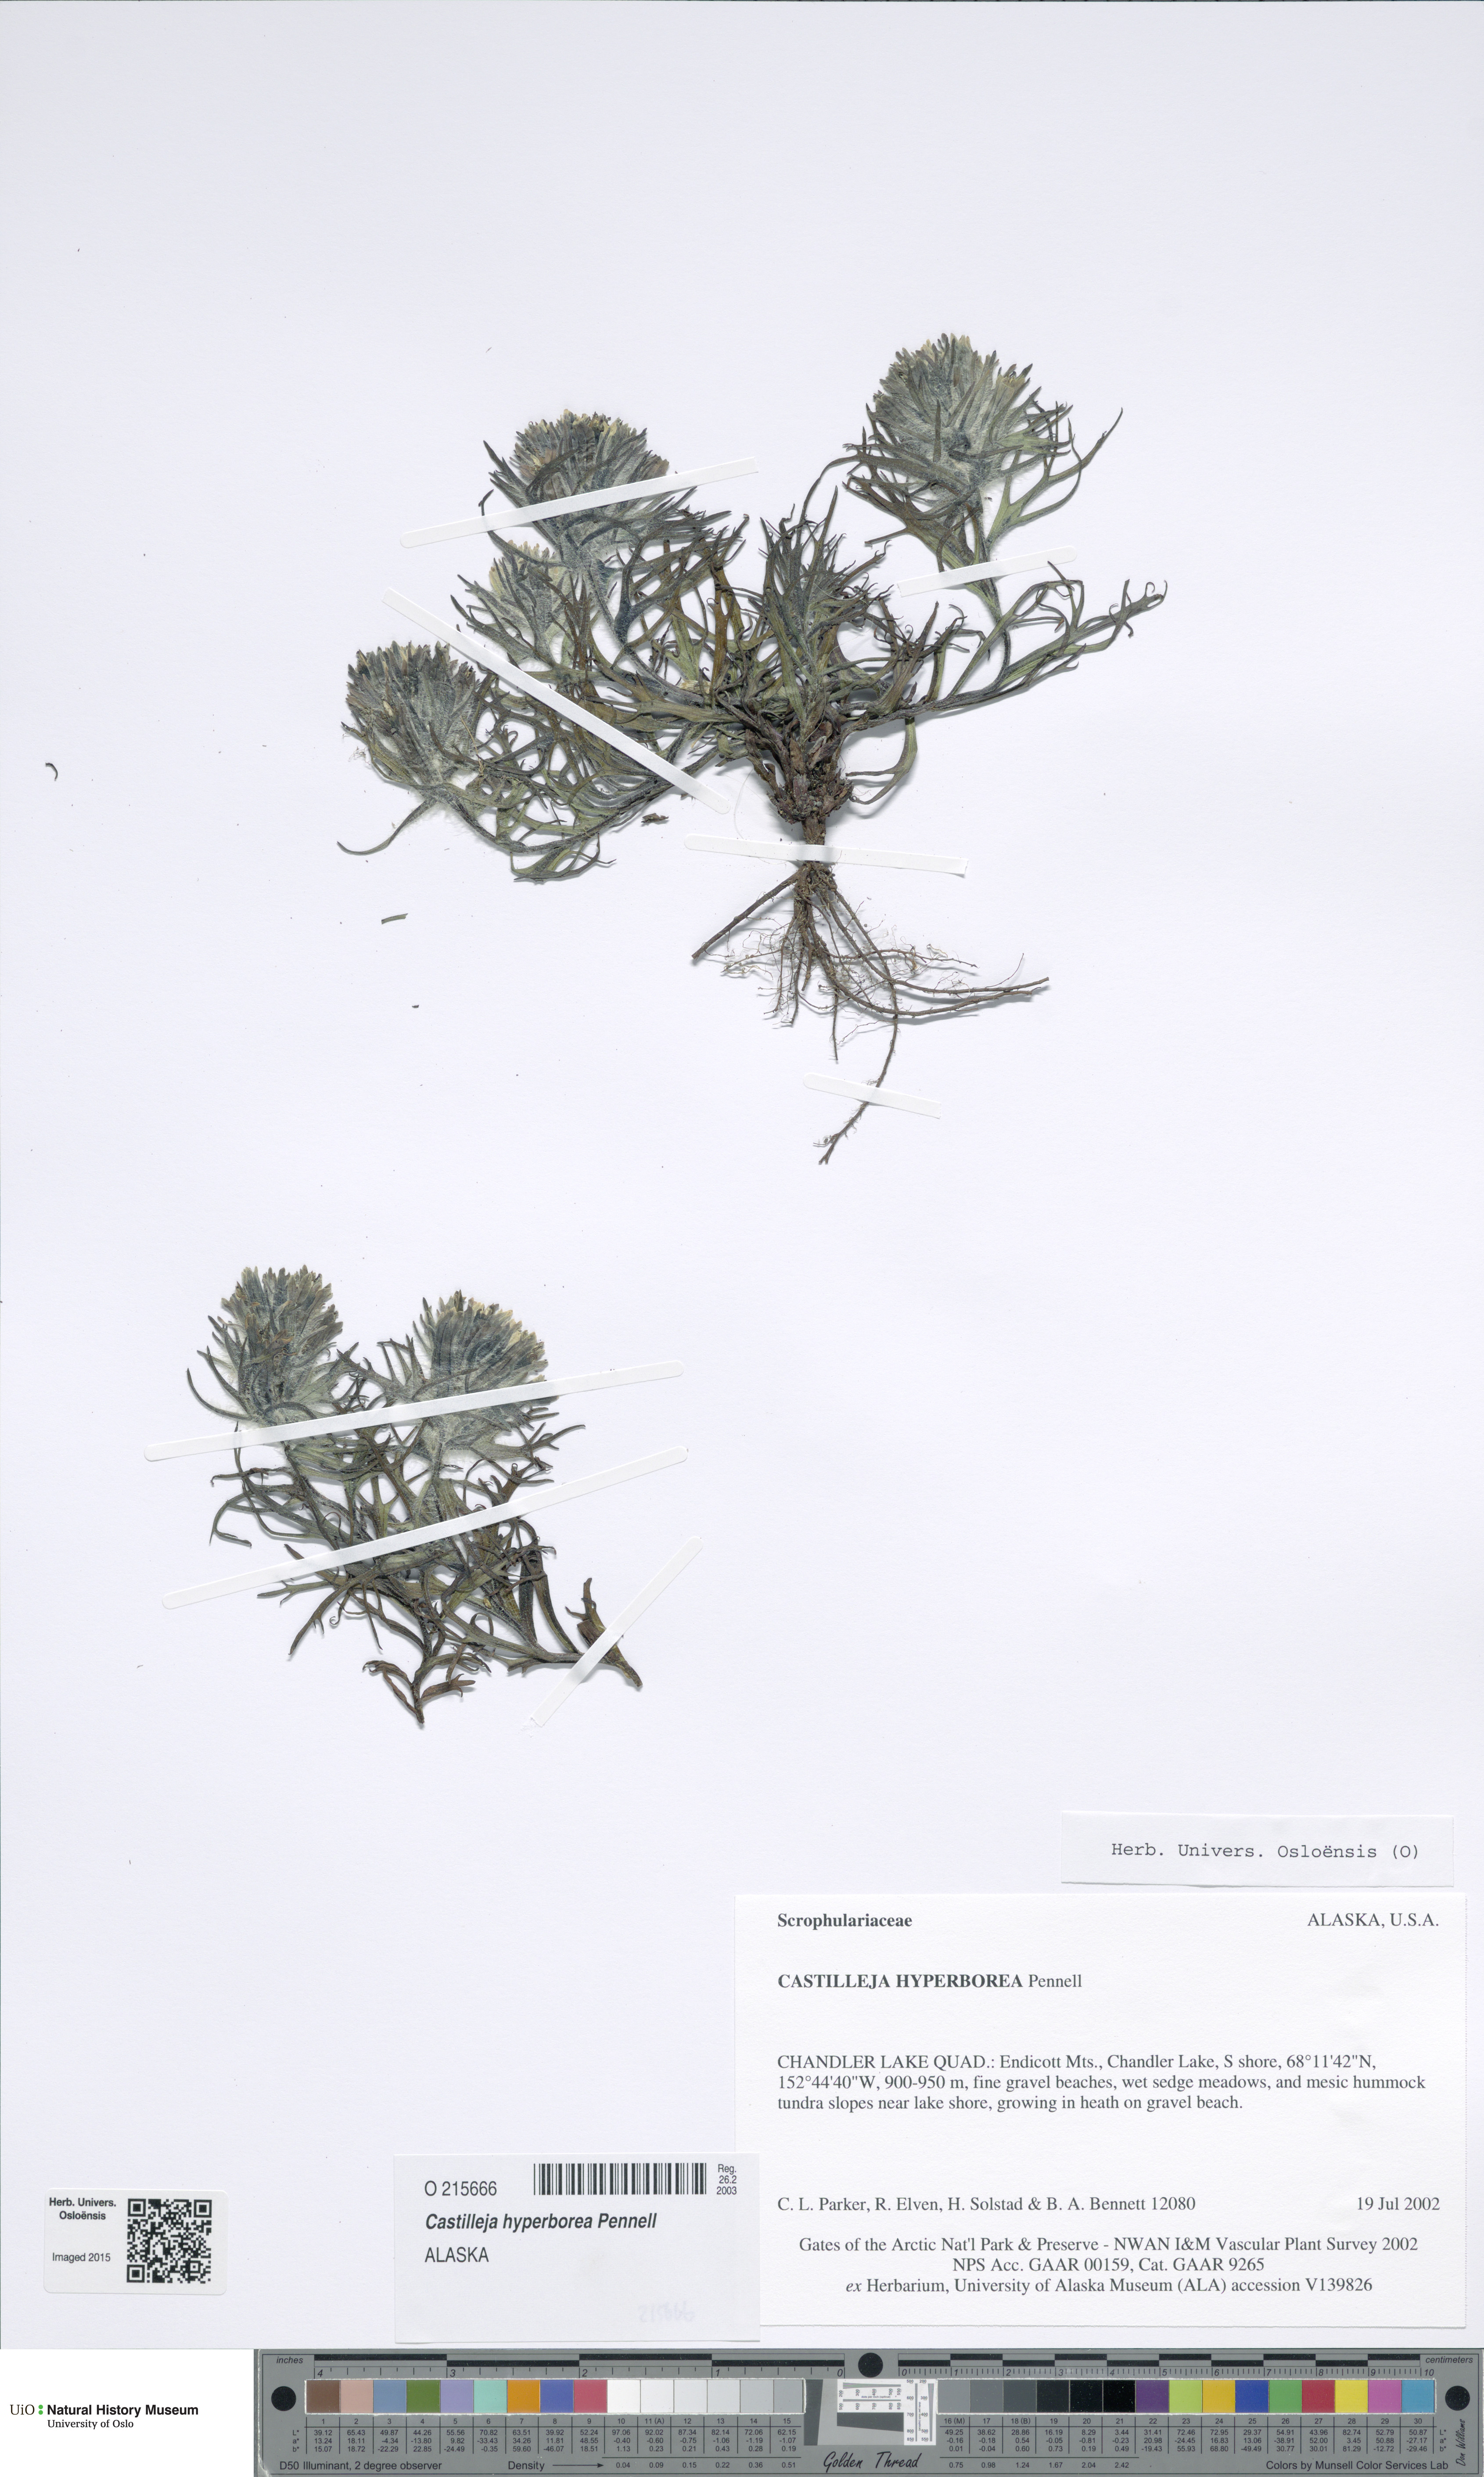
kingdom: Plantae
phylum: Tracheophyta
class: Magnoliopsida
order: Lamiales
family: Orobanchaceae
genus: Castilleja
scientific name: Castilleja hyperborea
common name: Northern paintbrush
